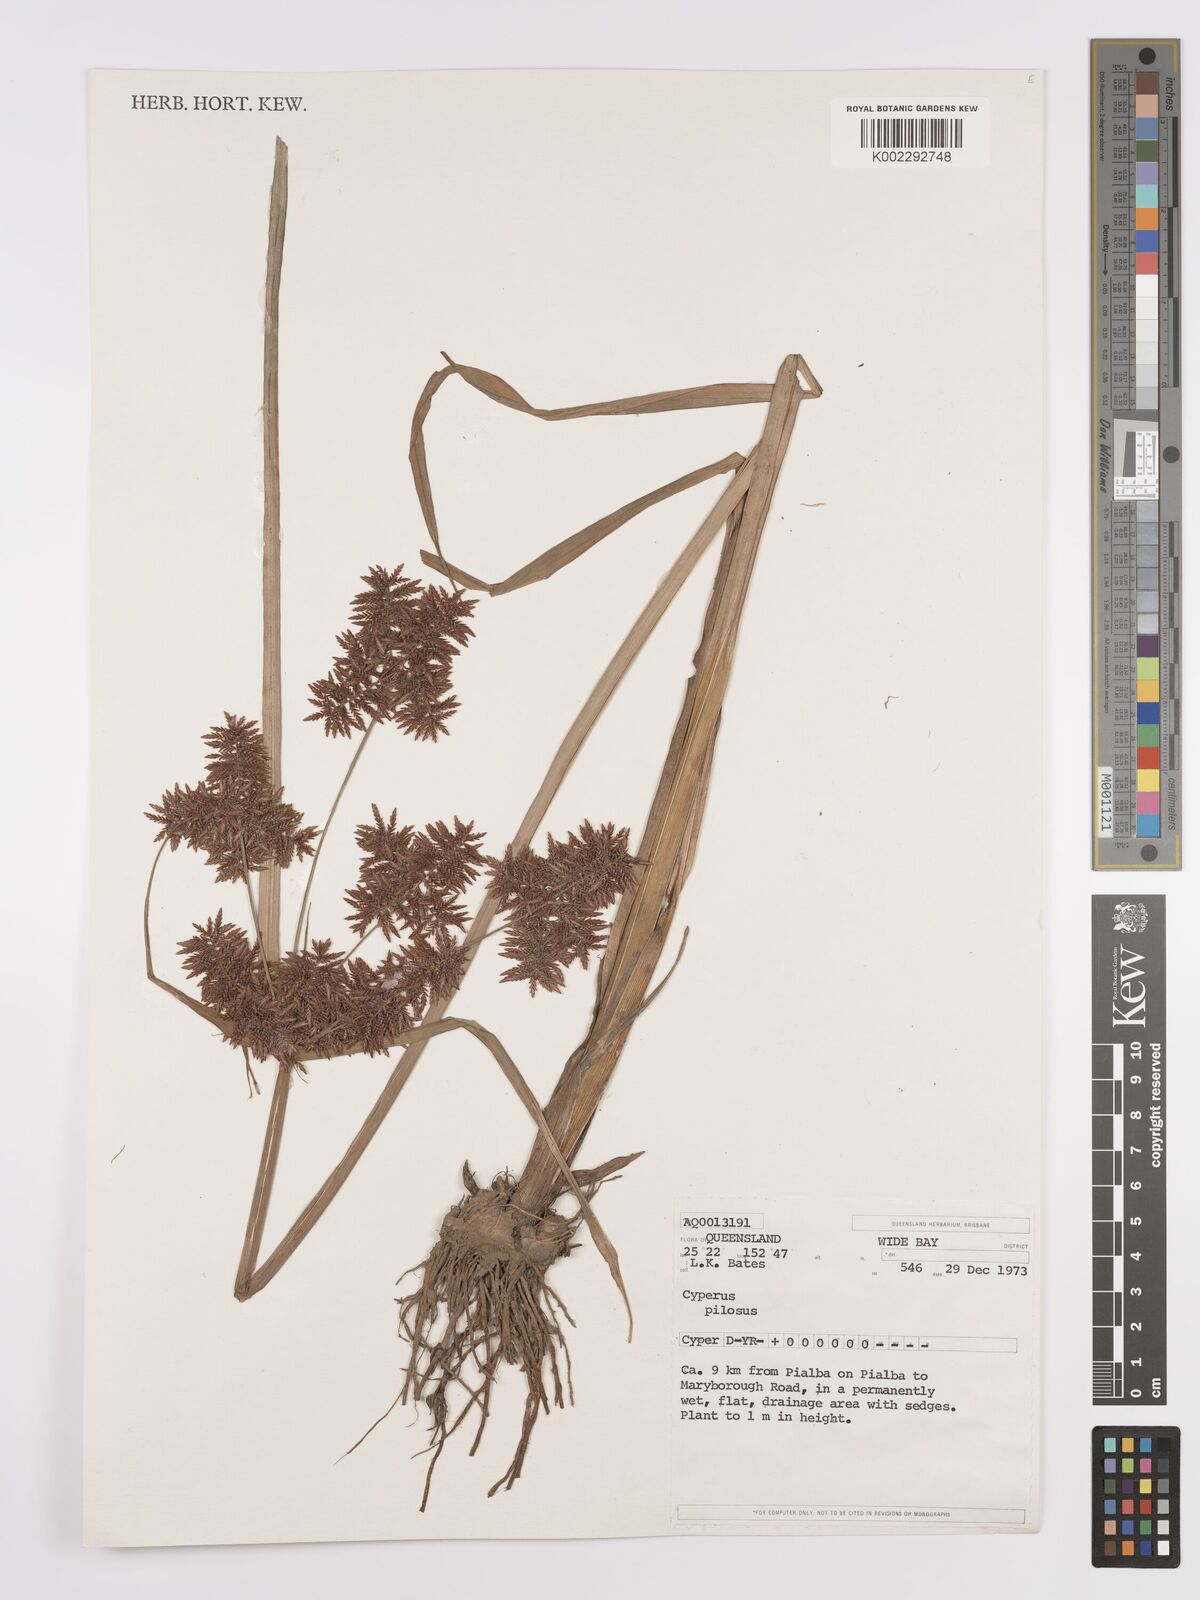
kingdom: Plantae
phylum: Tracheophyta
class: Liliopsida
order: Poales
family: Cyperaceae
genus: Cyperus
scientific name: Cyperus pilosus
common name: Fuzzy flatsedge
